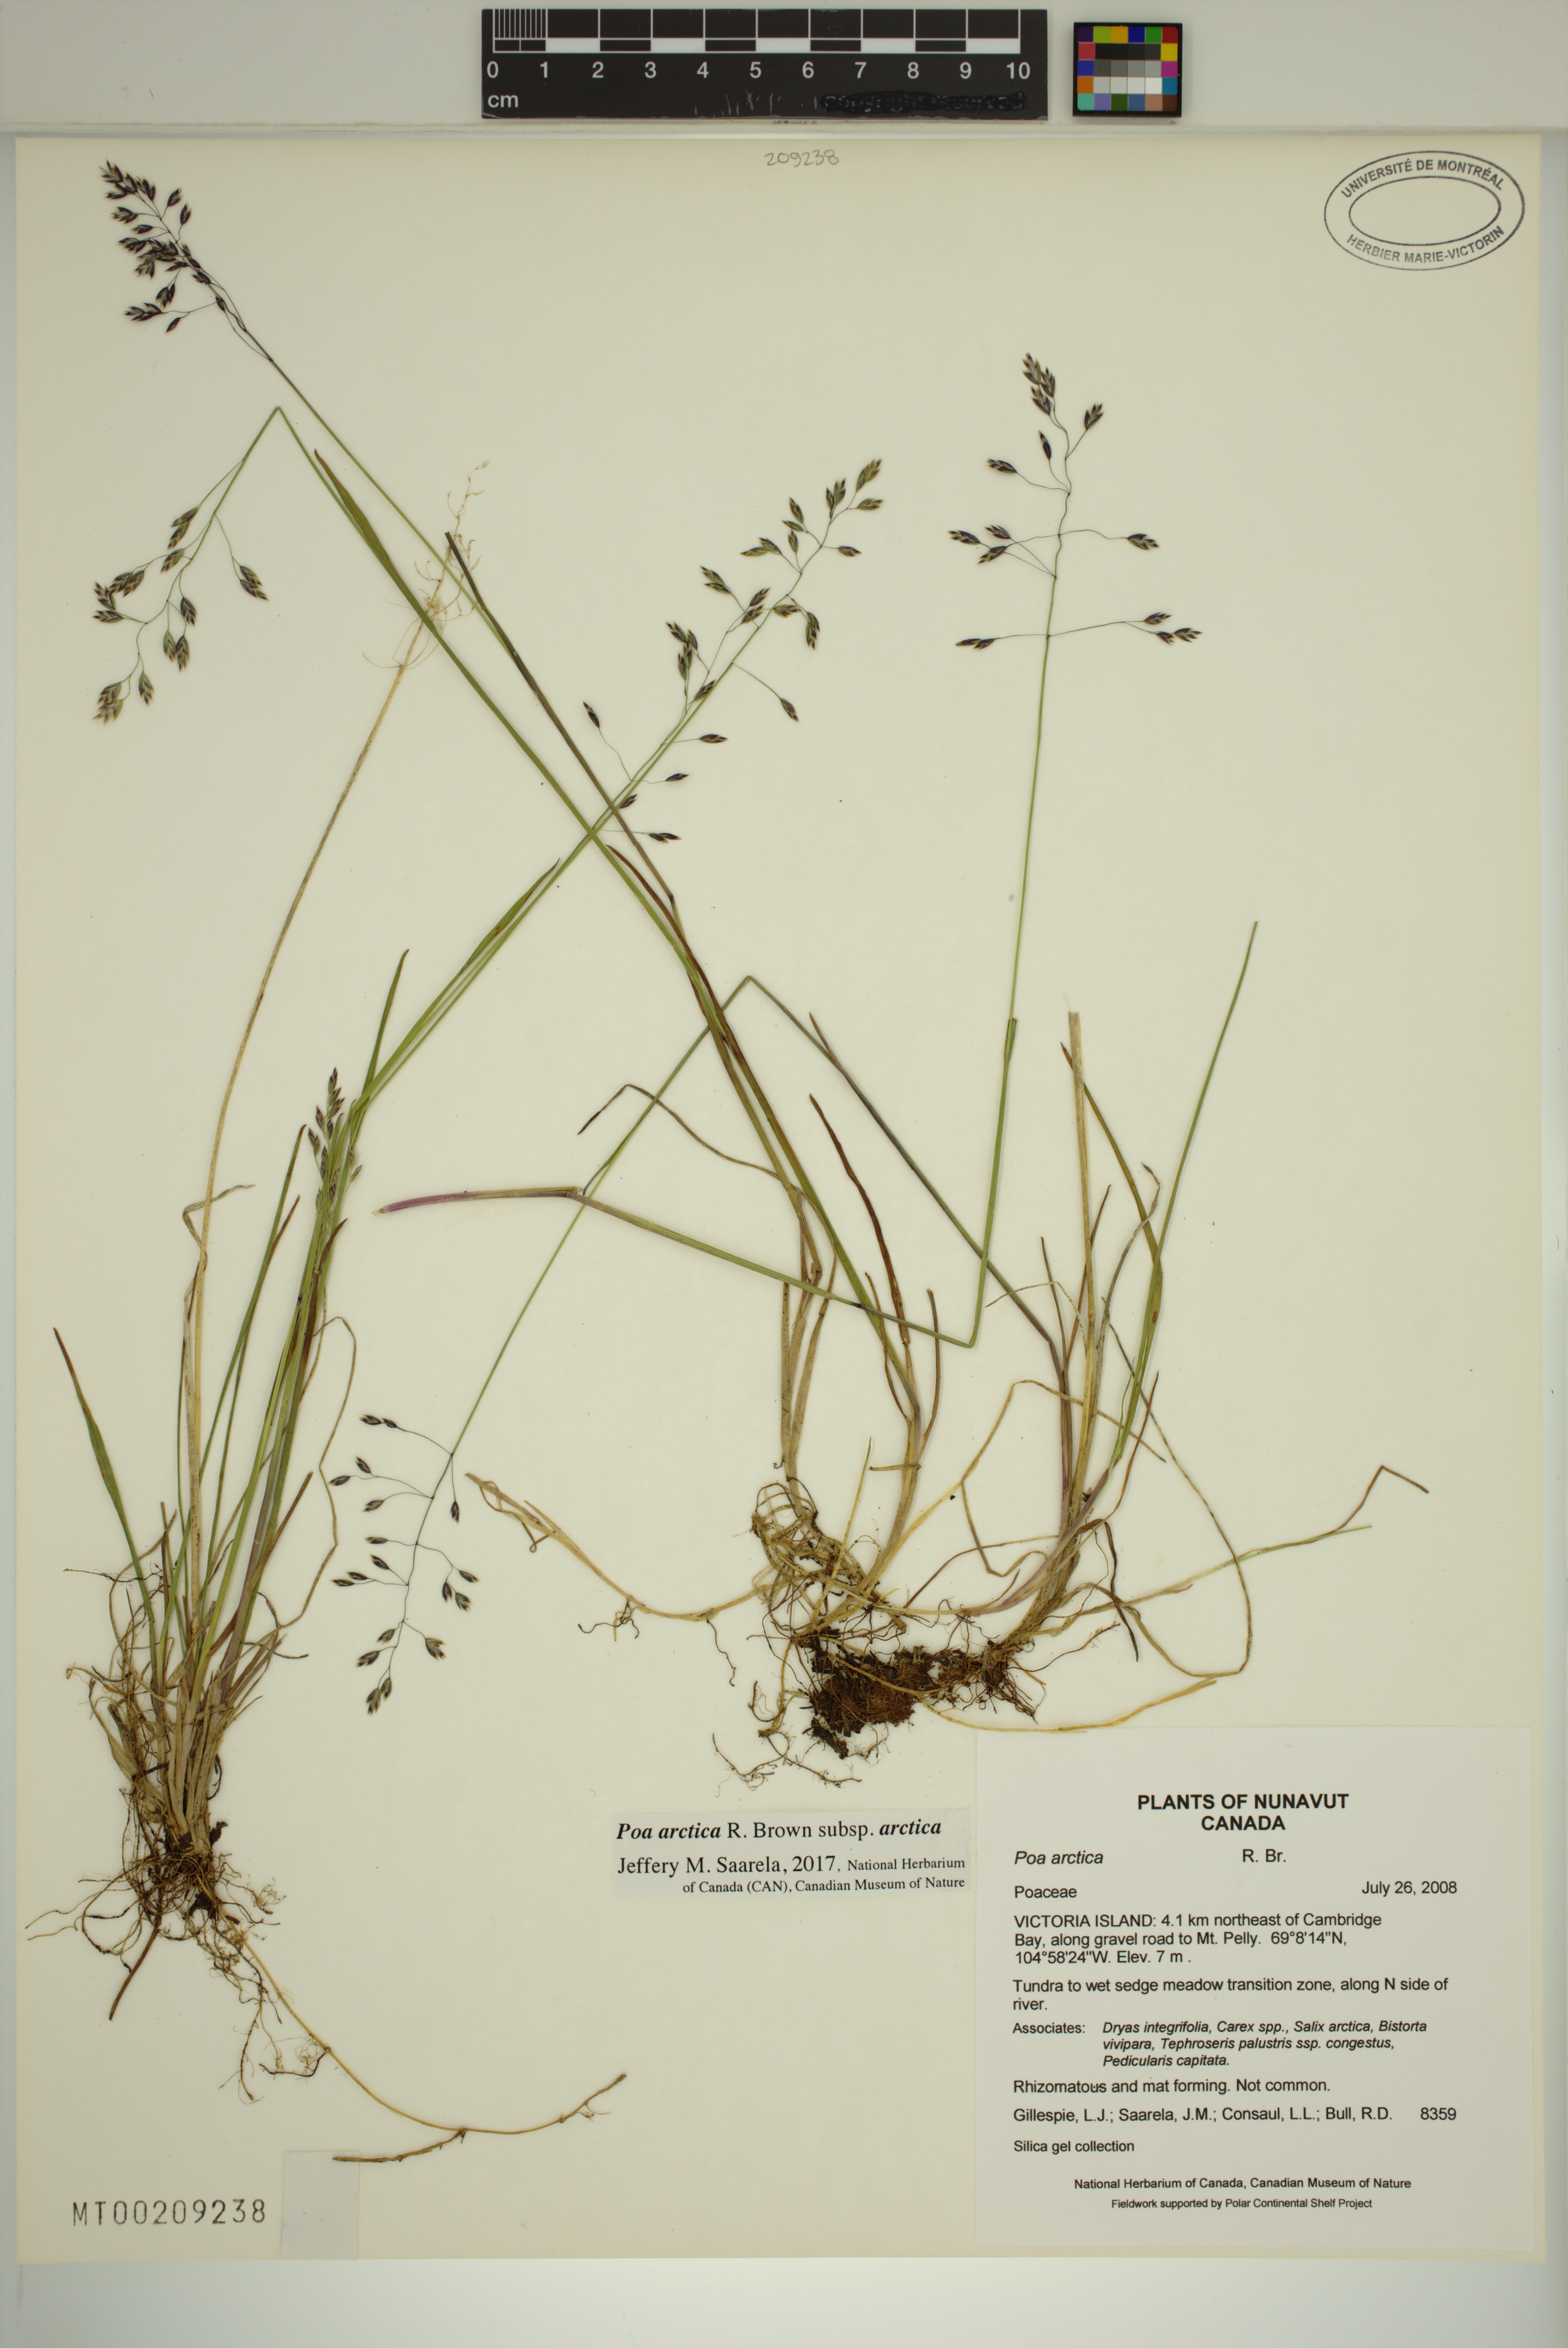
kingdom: Plantae
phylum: Tracheophyta
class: Liliopsida
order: Poales
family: Poaceae
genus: Poa
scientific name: Poa arctica
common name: Arctic bluegrass
